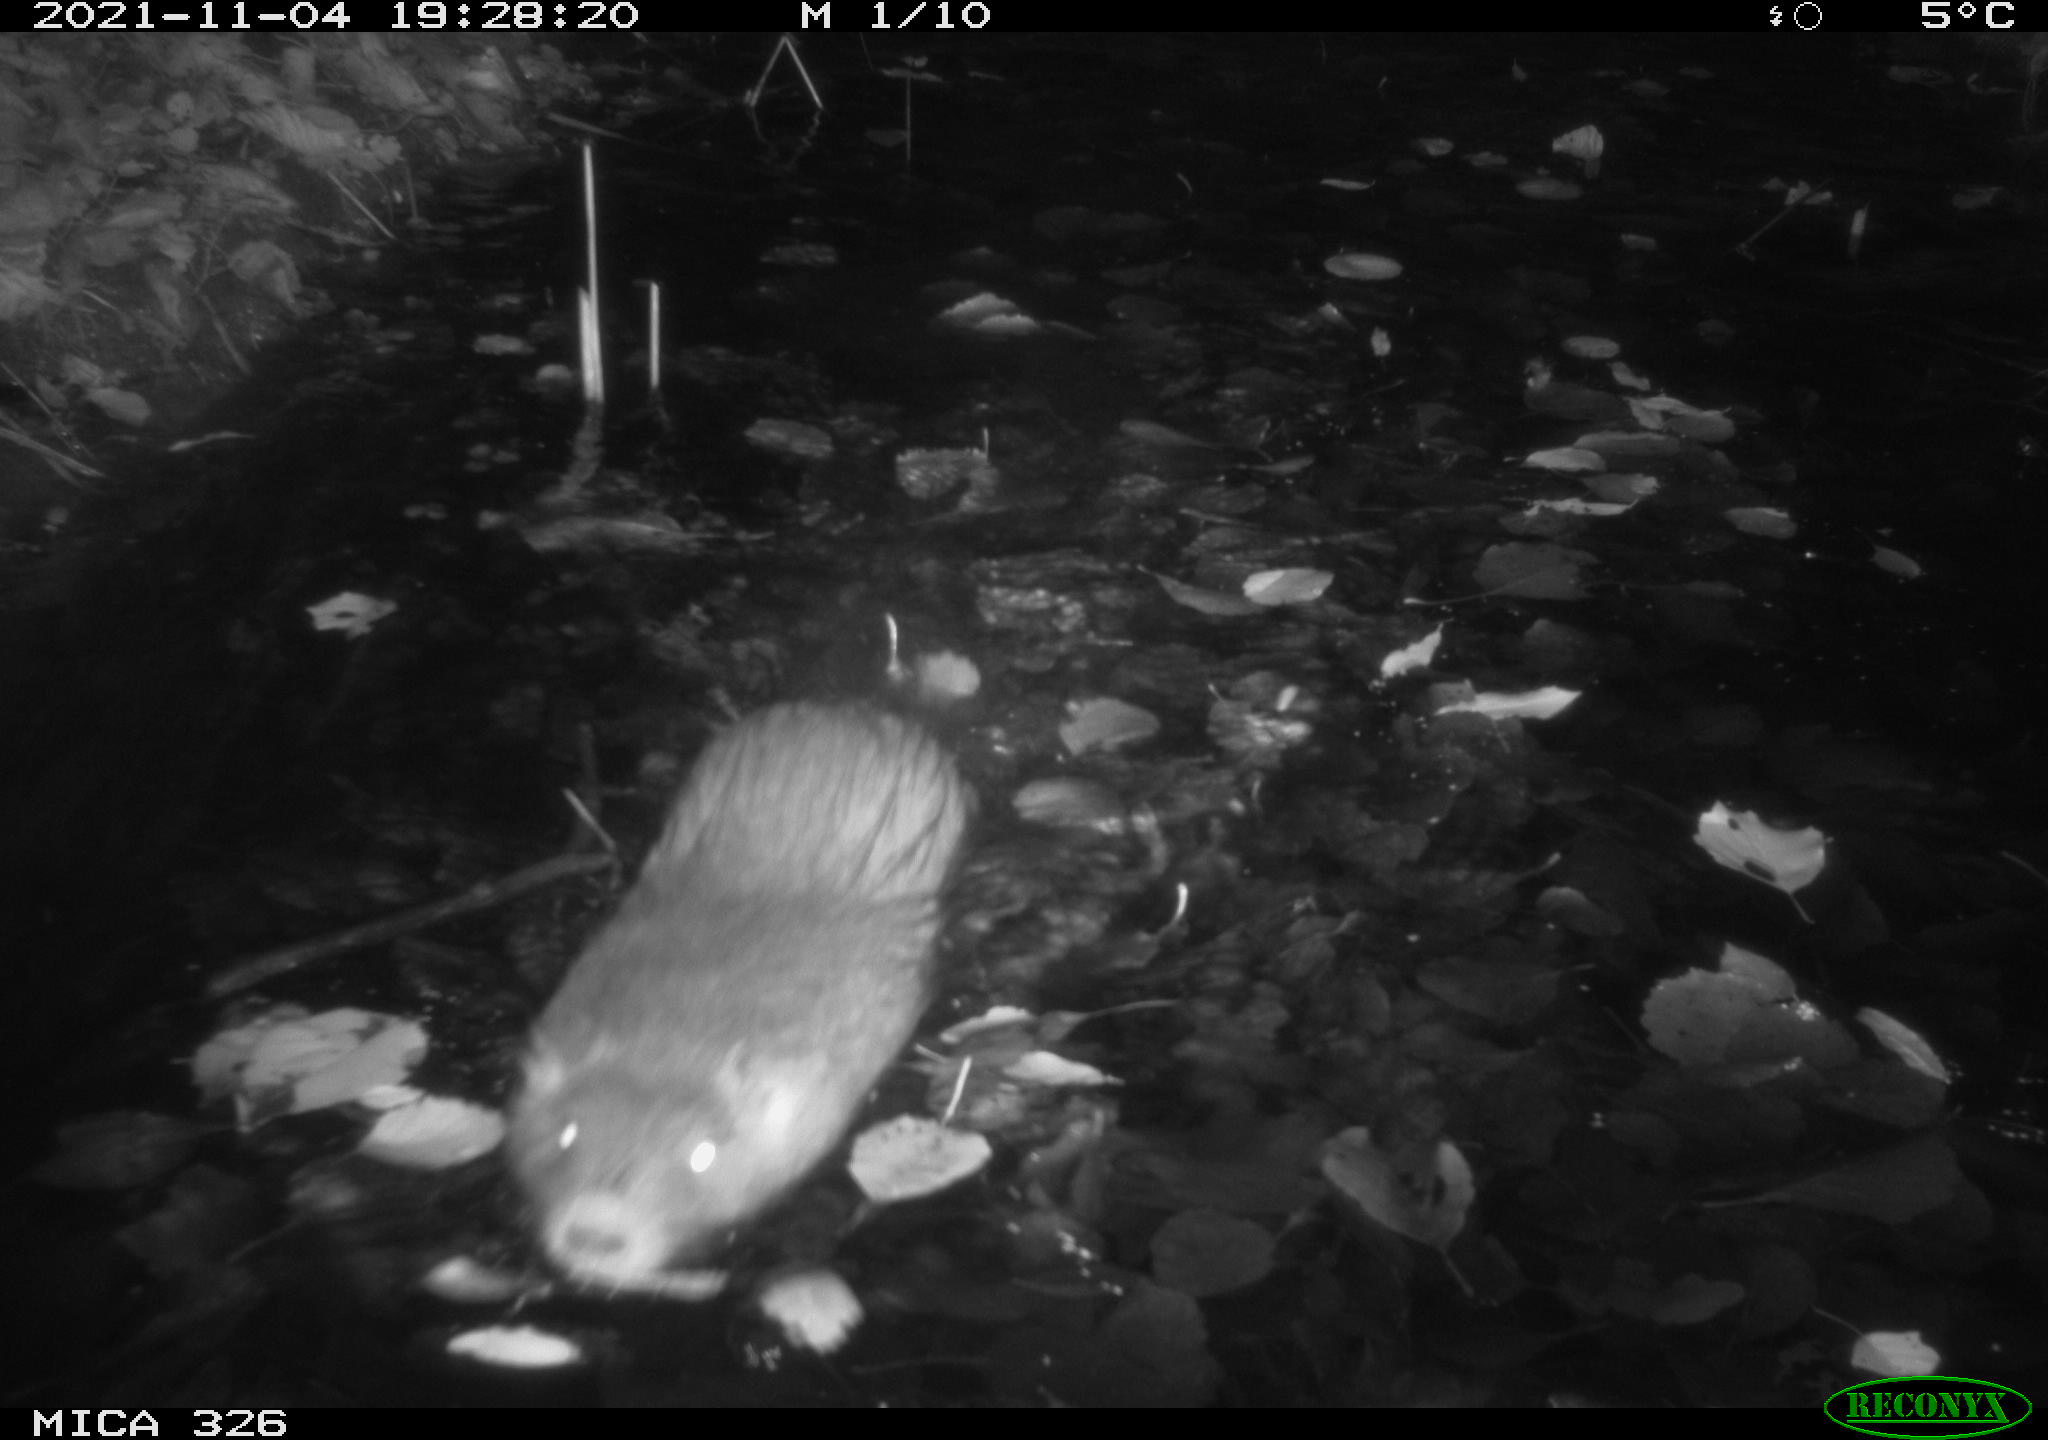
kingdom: Animalia
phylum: Chordata
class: Mammalia
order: Rodentia
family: Myocastoridae
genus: Myocastor
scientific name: Myocastor coypus
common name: Coypu
